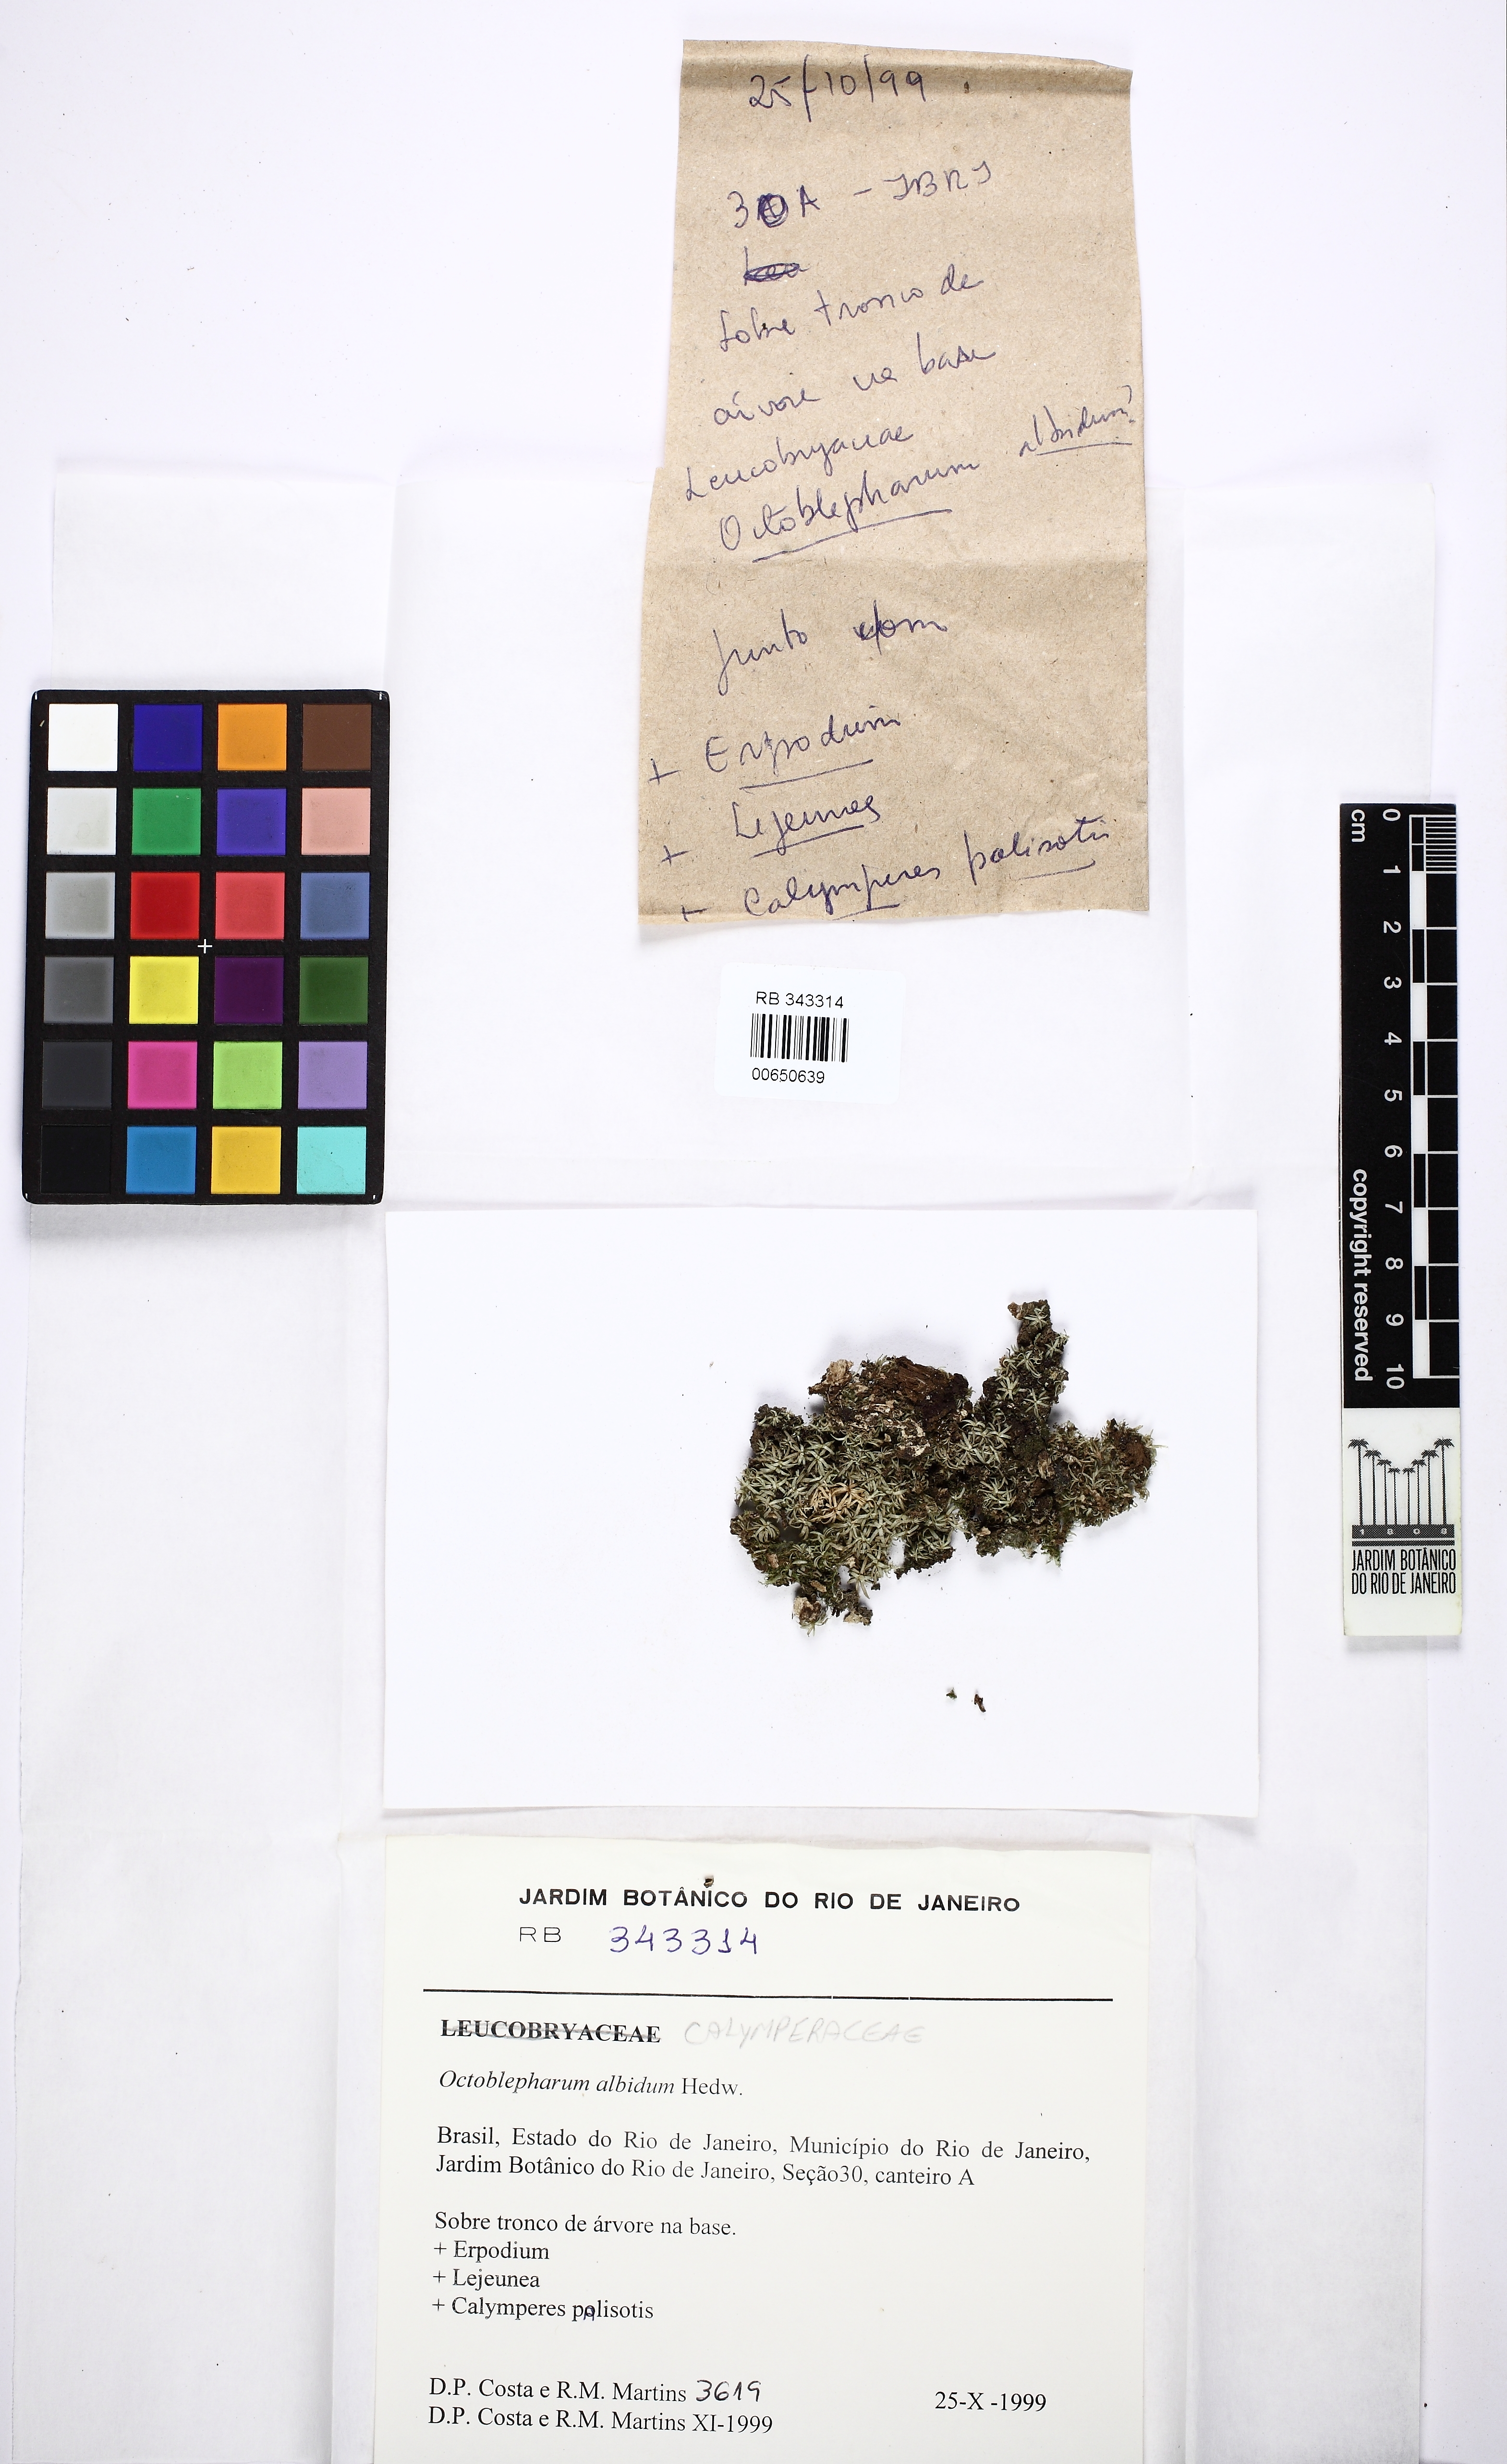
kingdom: Plantae
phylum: Bryophyta
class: Bryopsida
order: Dicranales
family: Octoblepharaceae
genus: Octoblepharum
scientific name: Octoblepharum albidum
